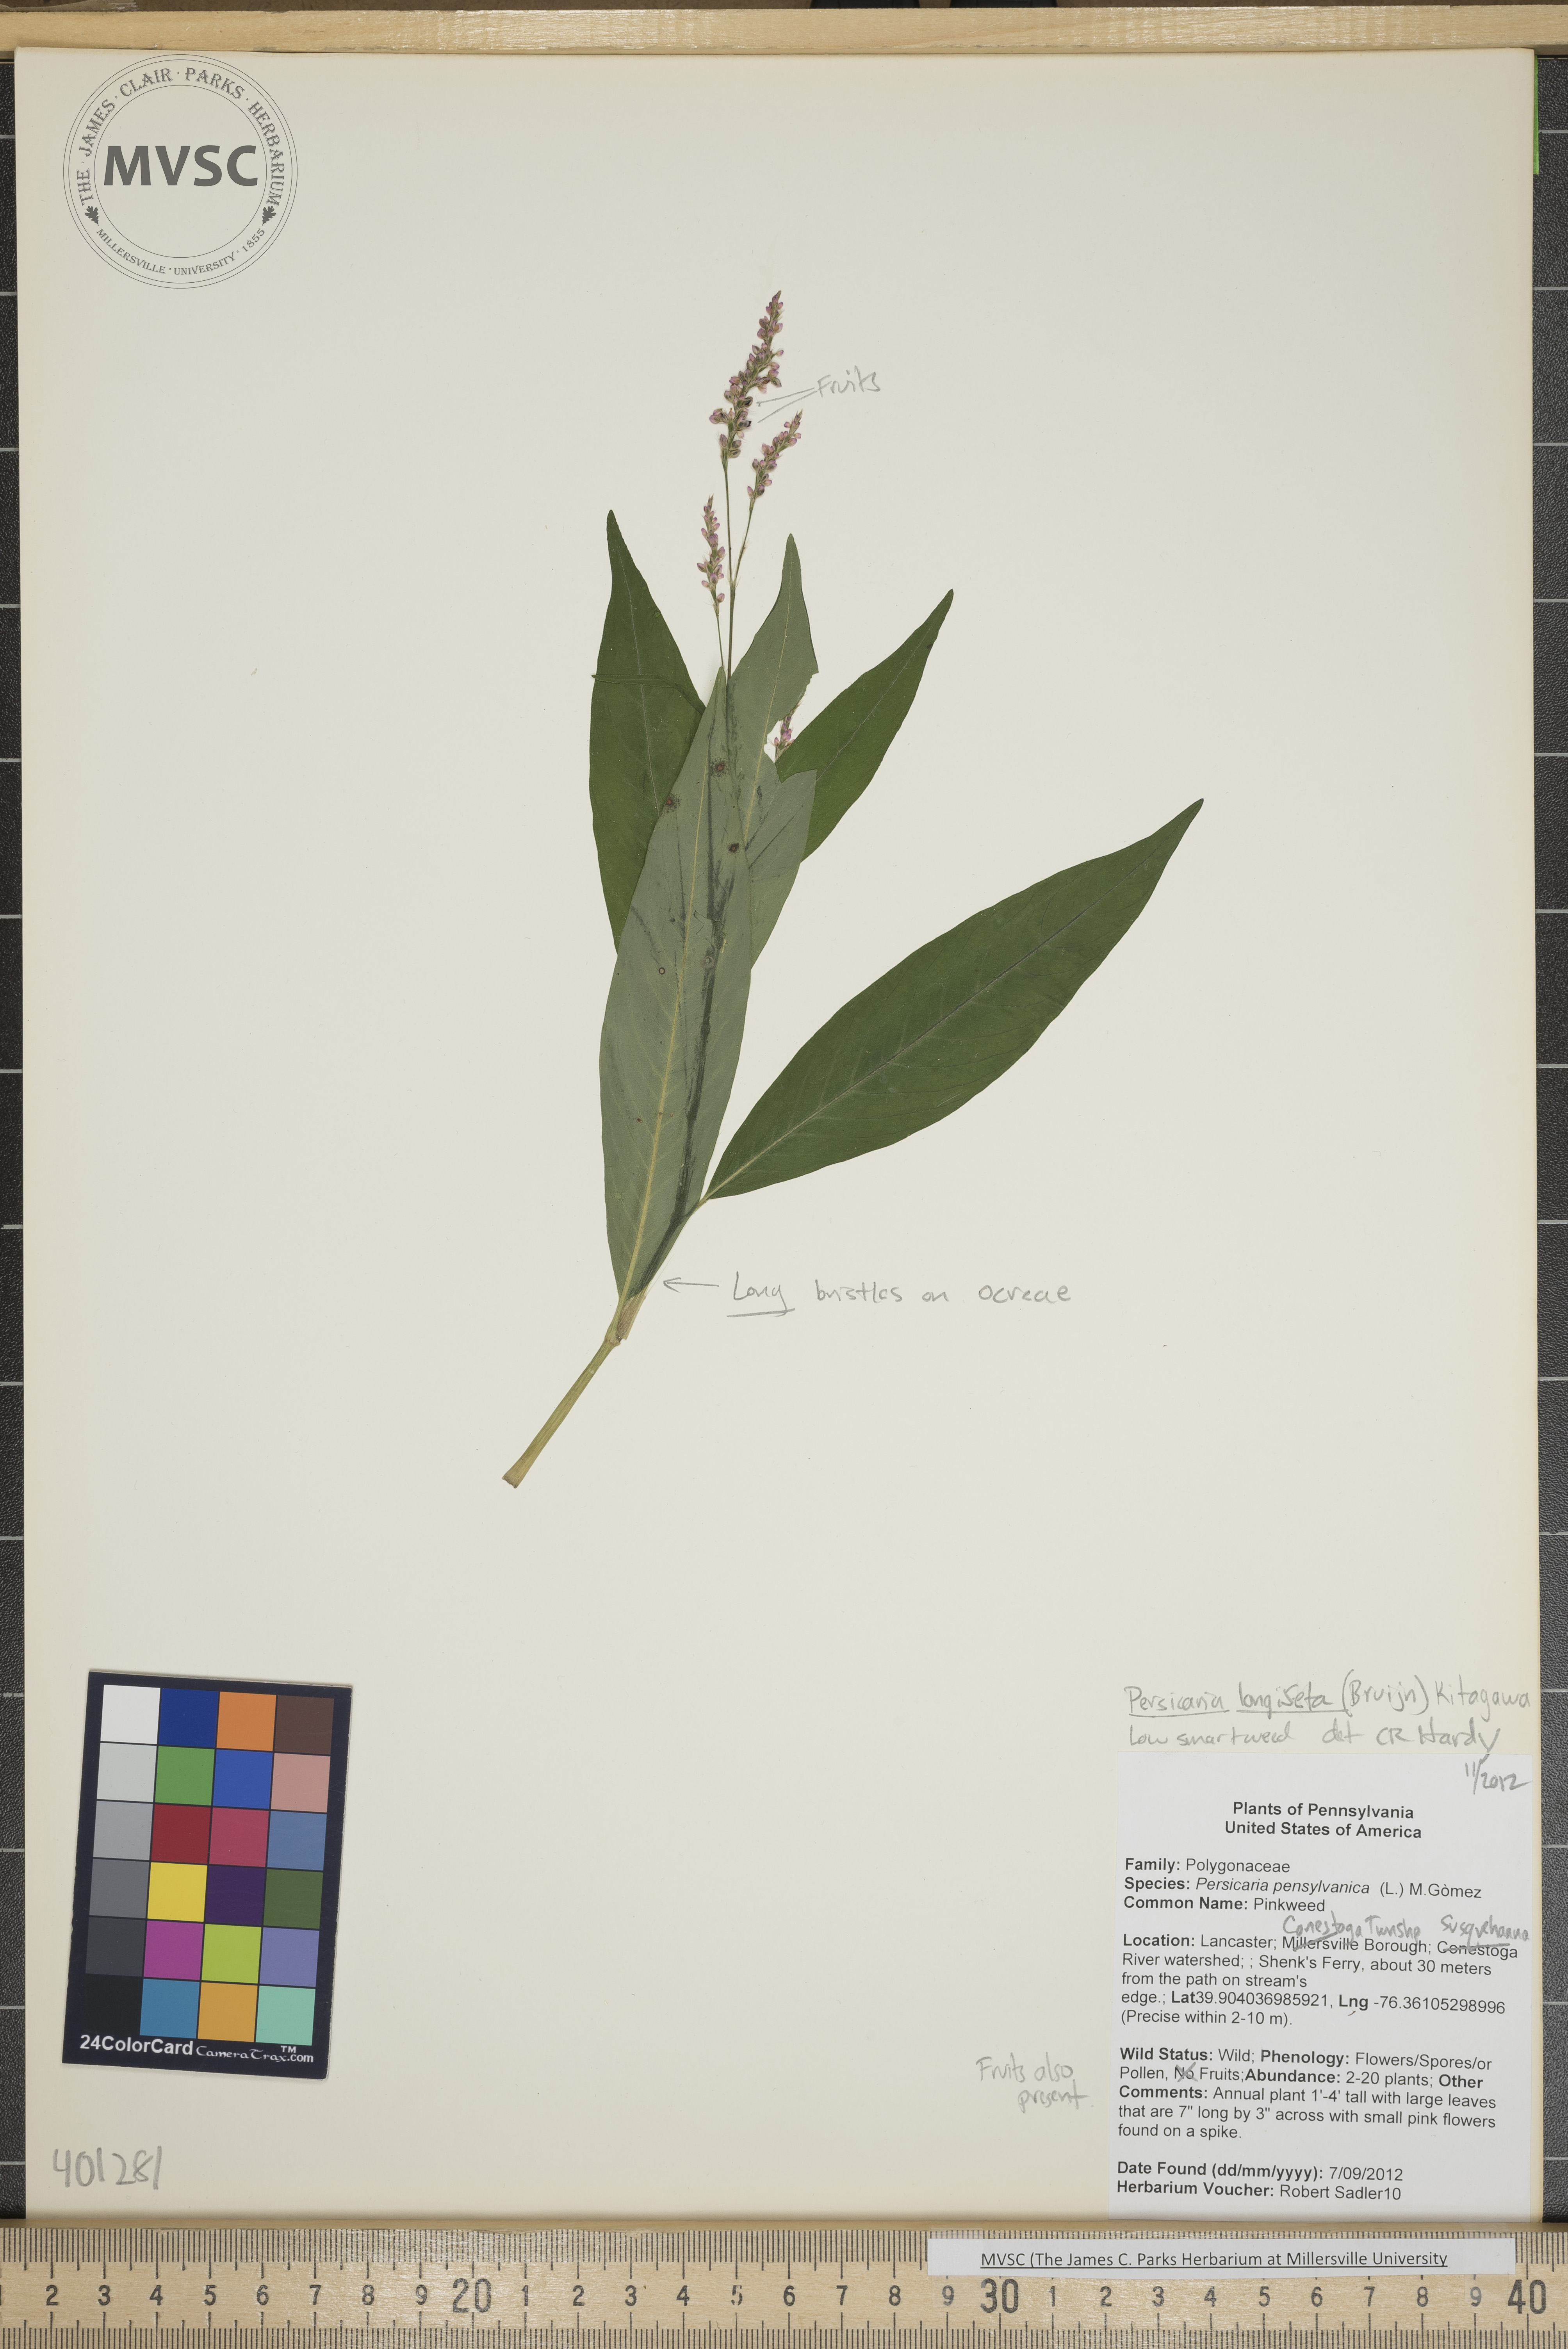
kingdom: Plantae
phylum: Tracheophyta
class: Magnoliopsida
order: Caryophyllales
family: Polygonaceae
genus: Persicaria
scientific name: Persicaria longiseta
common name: Low smartweed
